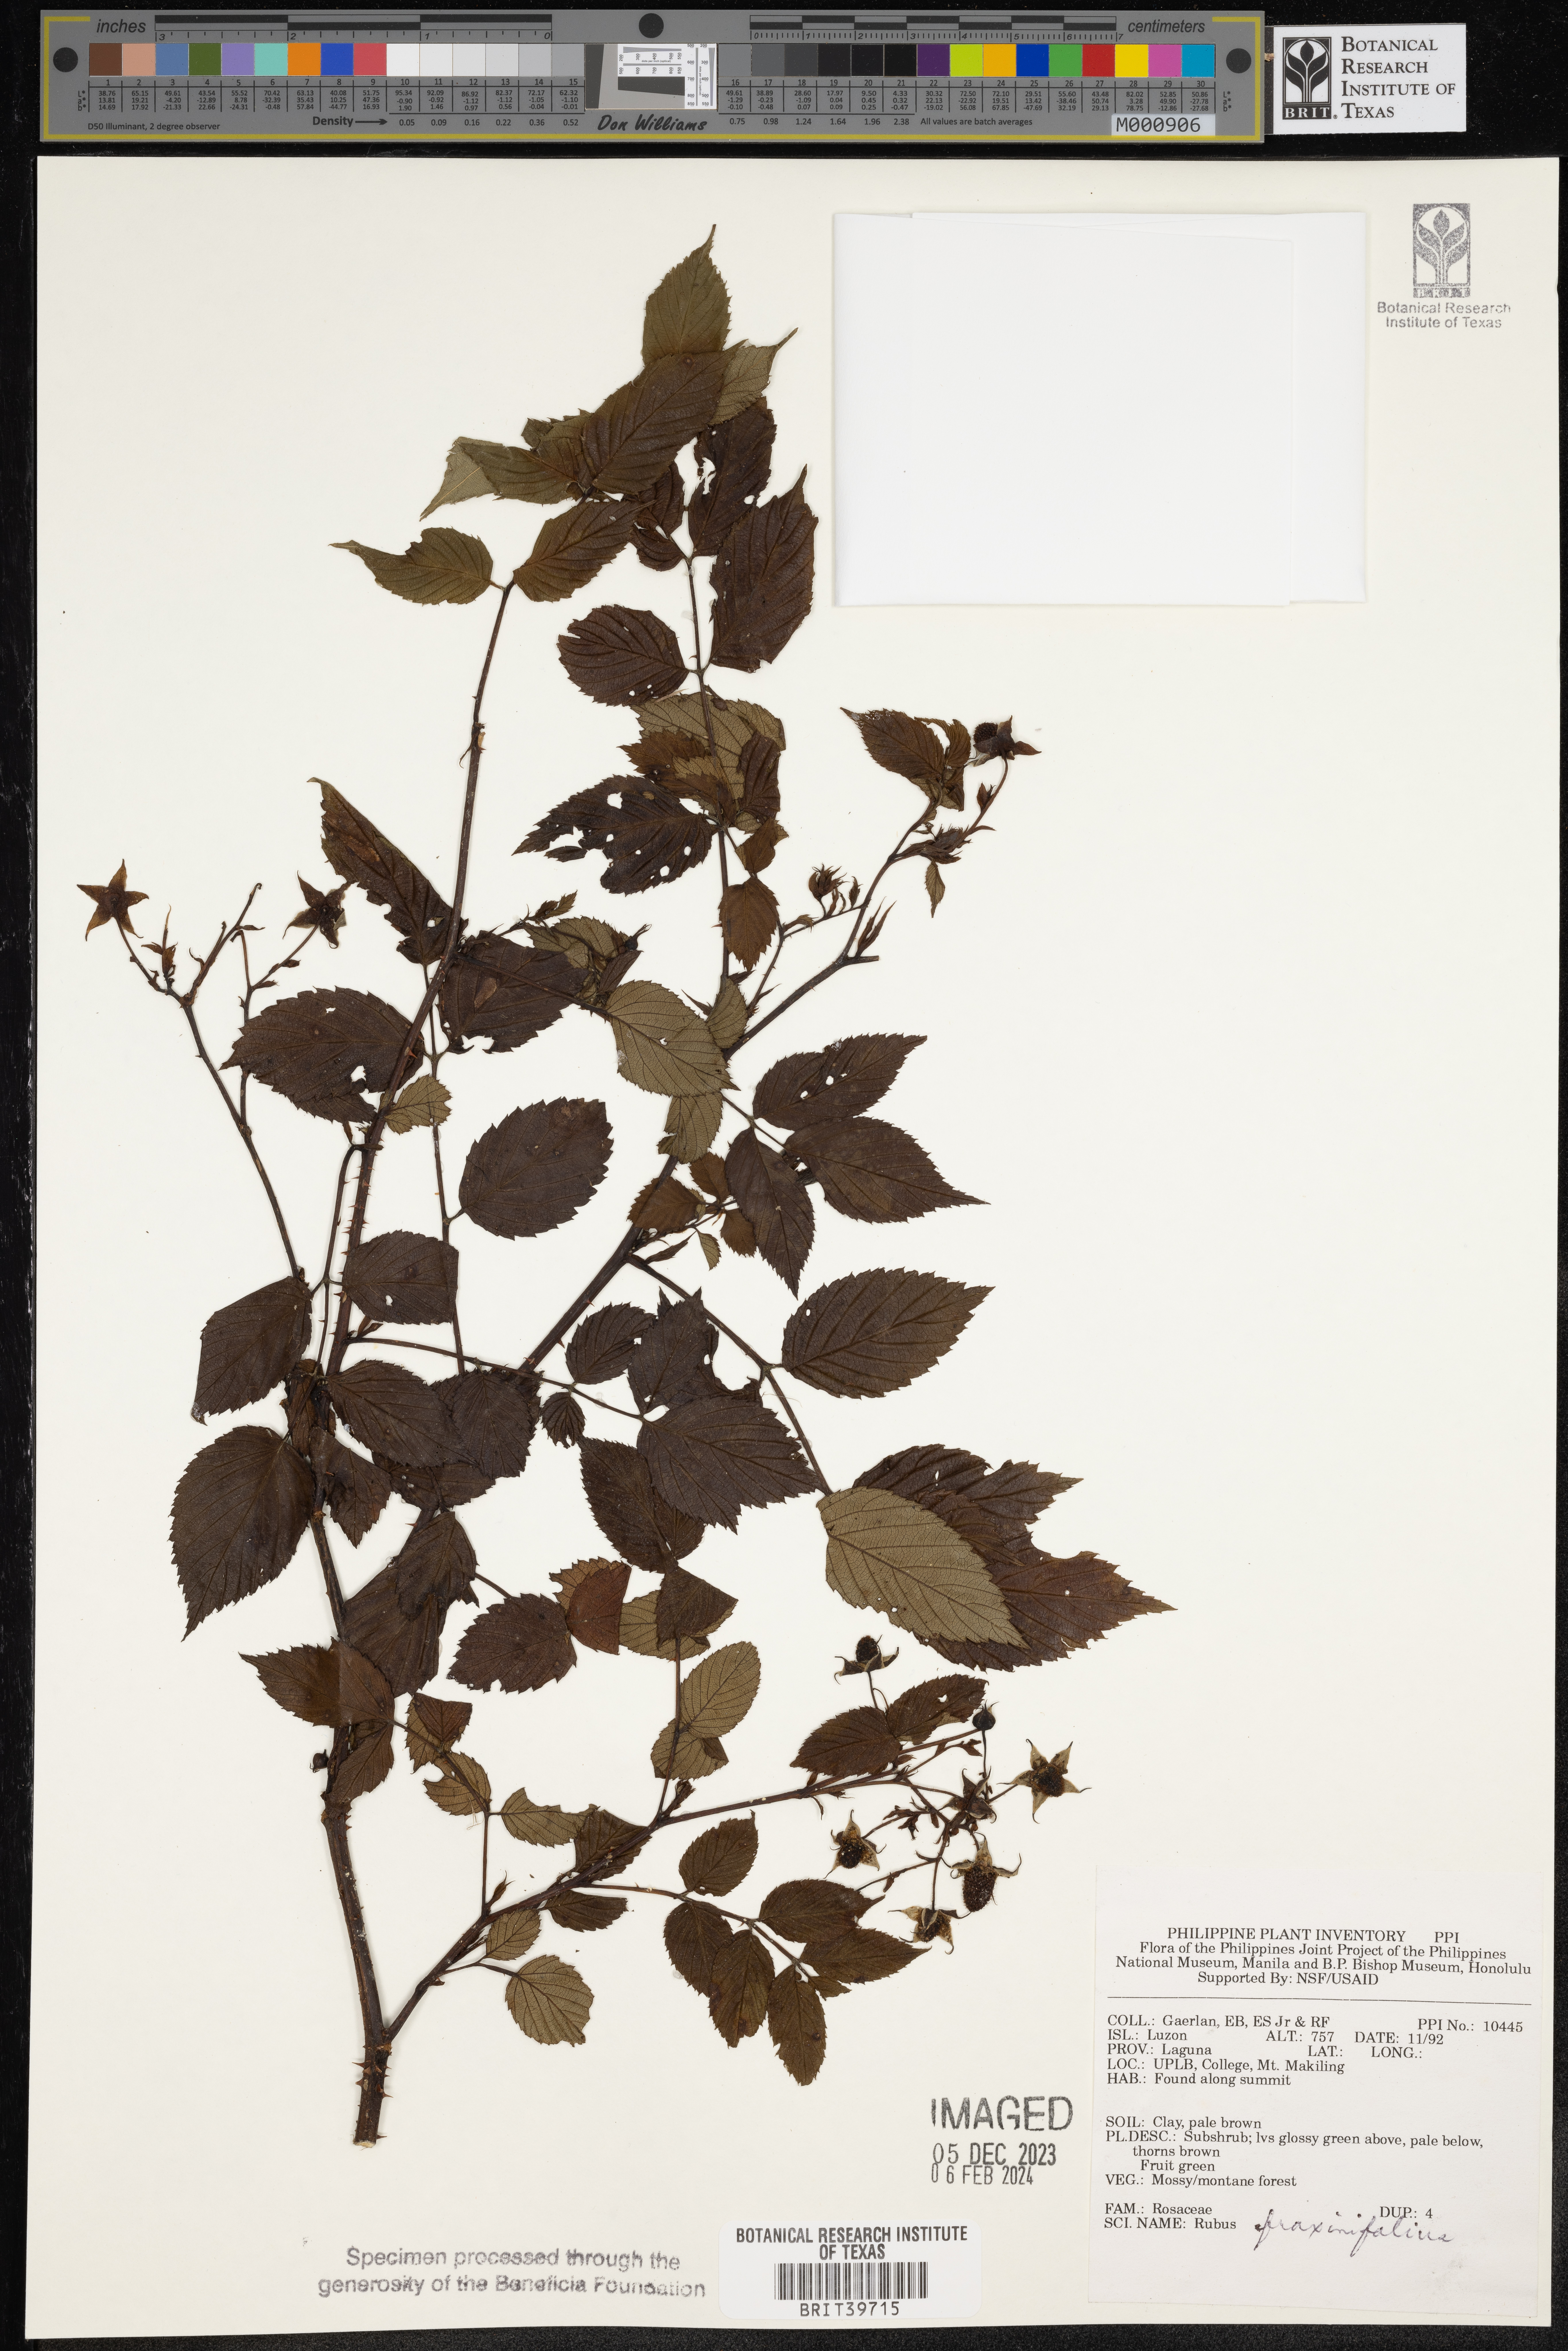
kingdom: Plantae
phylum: Tracheophyta
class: Magnoliopsida
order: Rosales
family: Rosaceae
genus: Rubus
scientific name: Rubus fraxinifolius
